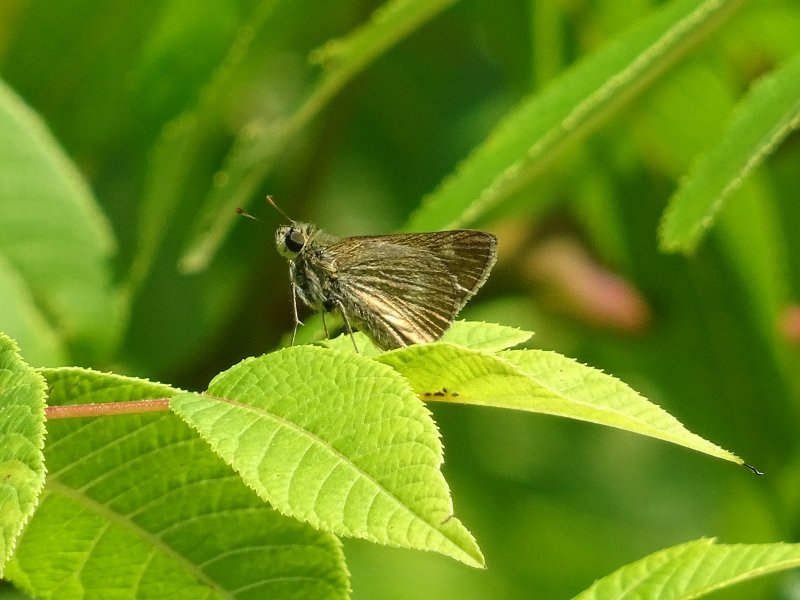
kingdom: Animalia
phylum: Arthropoda
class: Insecta
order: Lepidoptera
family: Hesperiidae
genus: Polites
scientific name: Polites themistocles
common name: Tawny-edged Skipper
